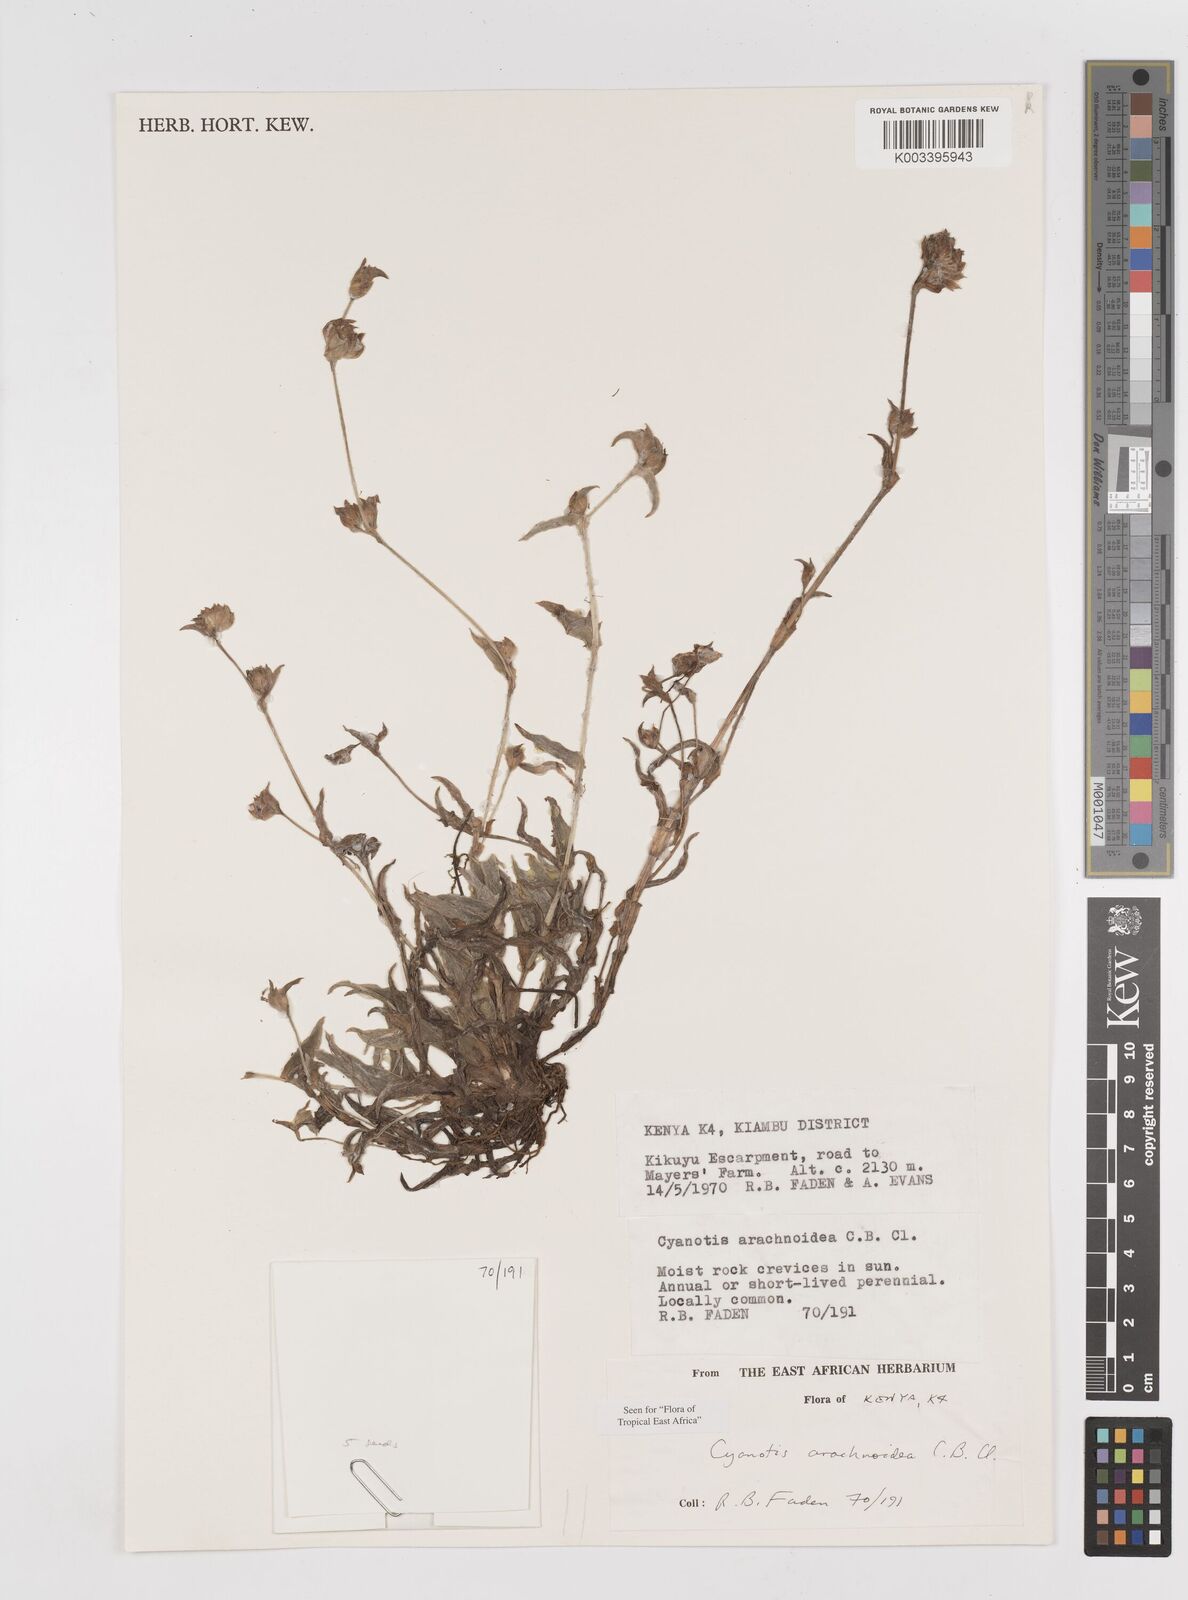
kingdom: Plantae
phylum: Tracheophyta
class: Liliopsida
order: Commelinales
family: Commelinaceae
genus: Cyanotis
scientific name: Cyanotis arachnoidea
